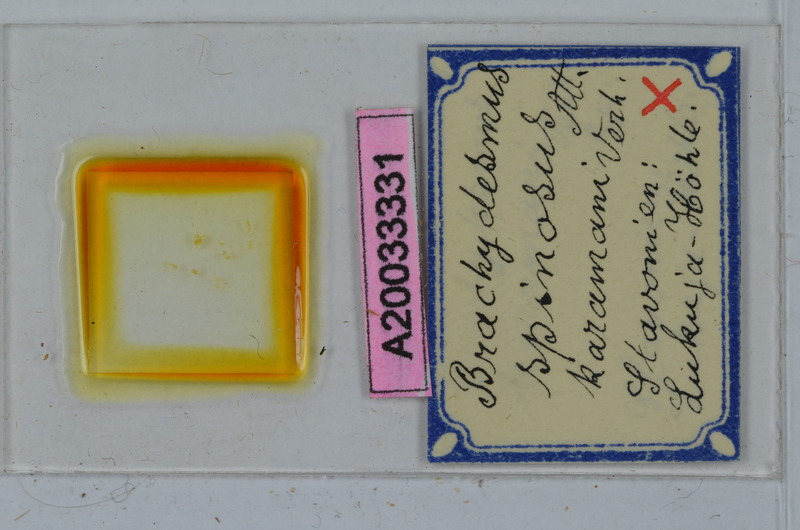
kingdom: Animalia
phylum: Arthropoda
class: Diplopoda
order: Polydesmida
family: Polydesmidae
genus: Brachydesmus
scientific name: Brachydesmus spinosus
